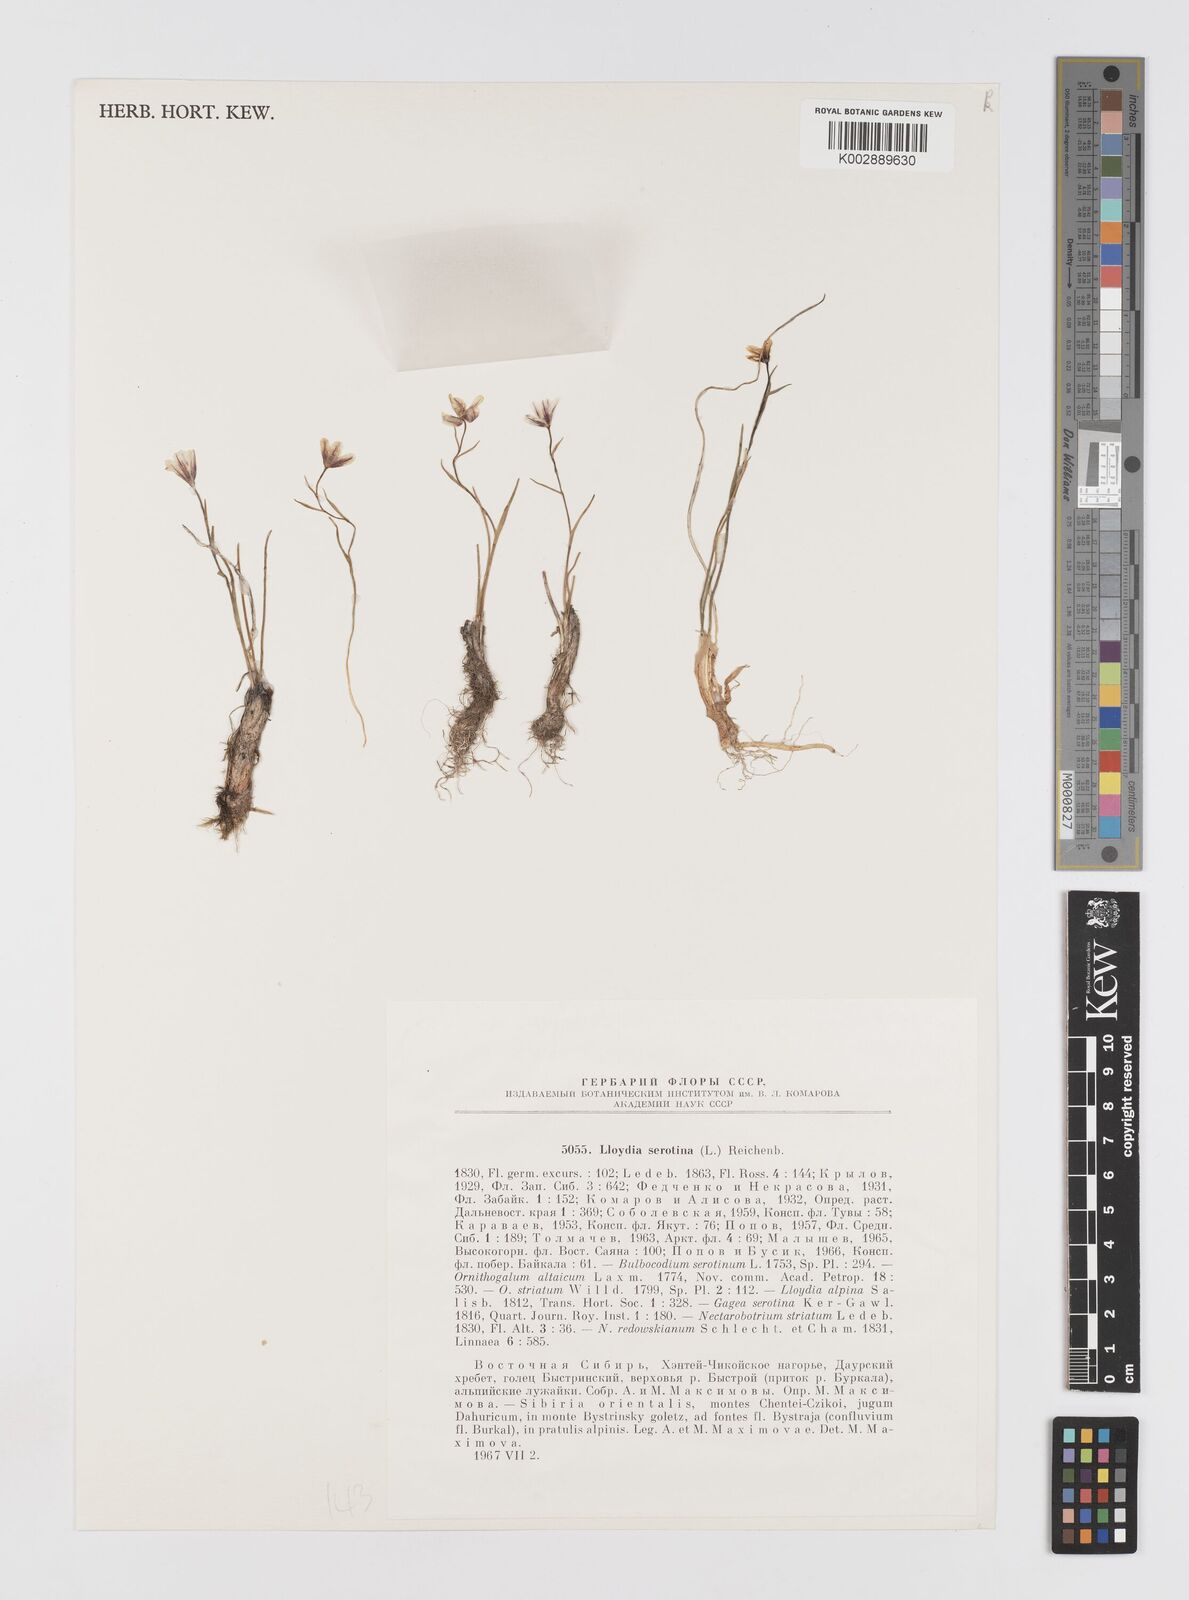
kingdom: Plantae
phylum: Tracheophyta
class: Liliopsida
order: Liliales
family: Liliaceae
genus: Gagea
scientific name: Gagea serotina
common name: Snowdon lily
